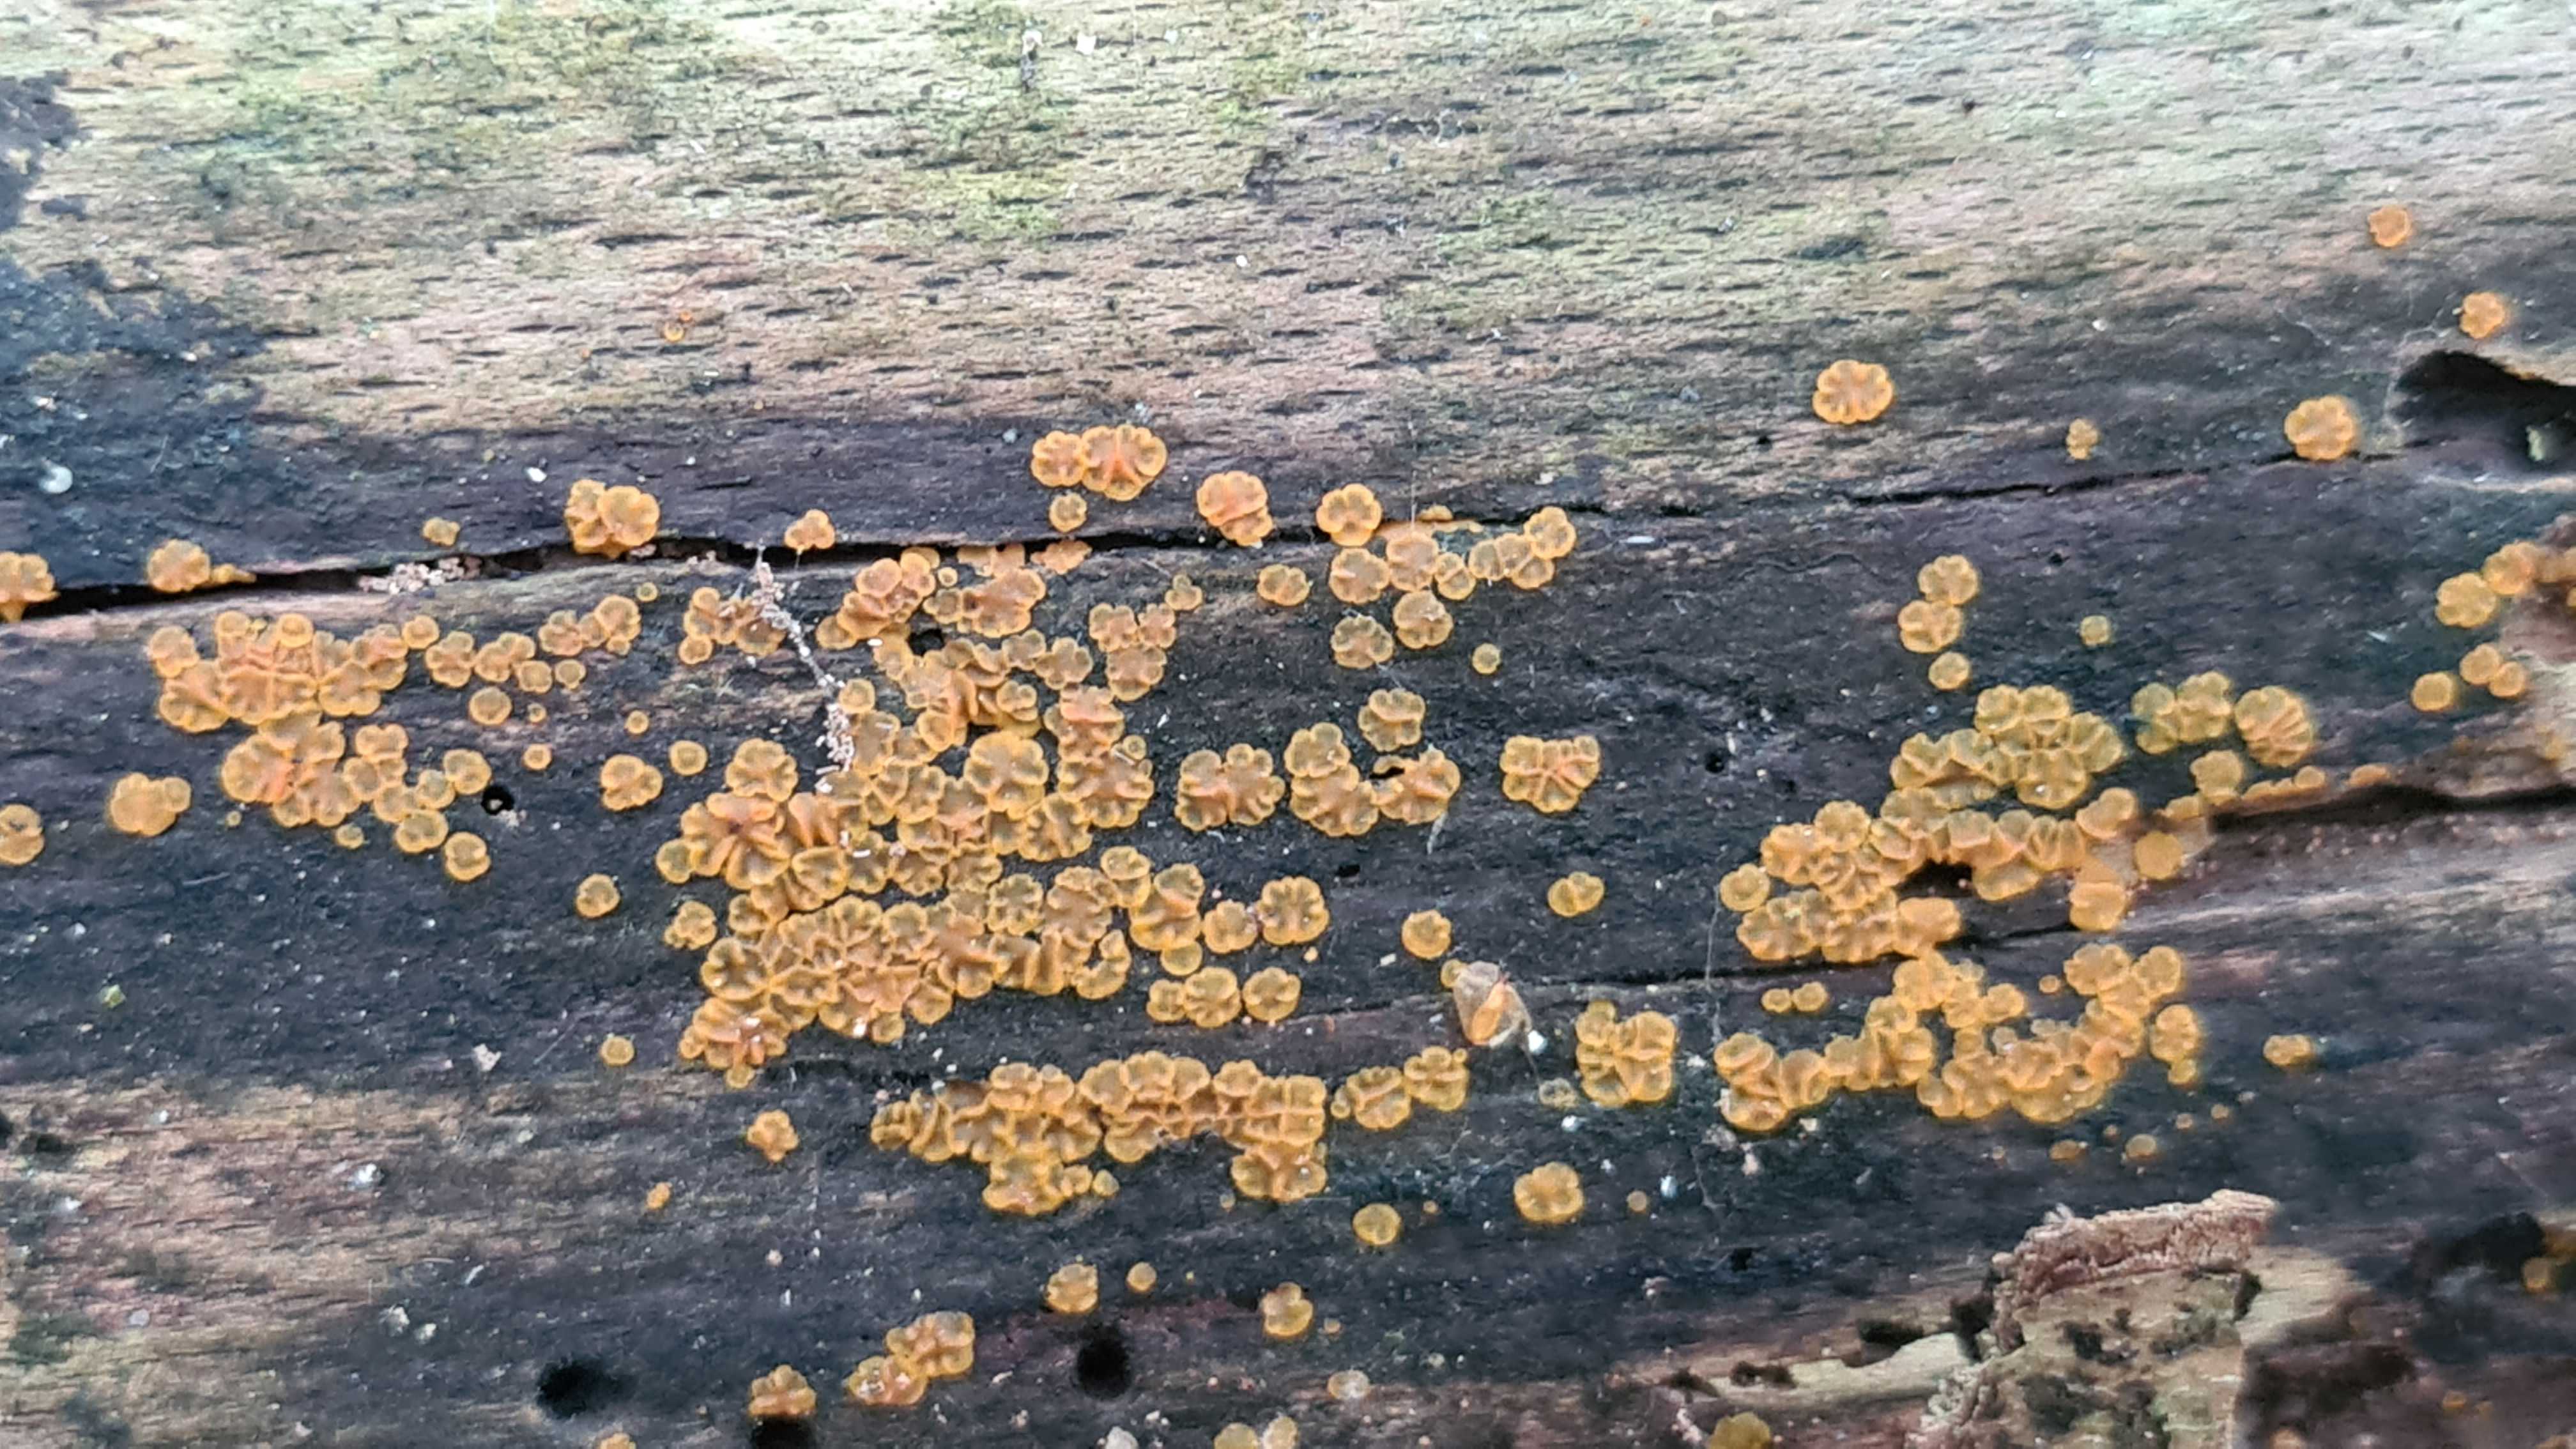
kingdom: Fungi
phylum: Ascomycota
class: Orbiliomycetes
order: Orbiliales
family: Orbiliaceae
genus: Orbilia
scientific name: Orbilia xanthostigma
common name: krumsporet voksskive
